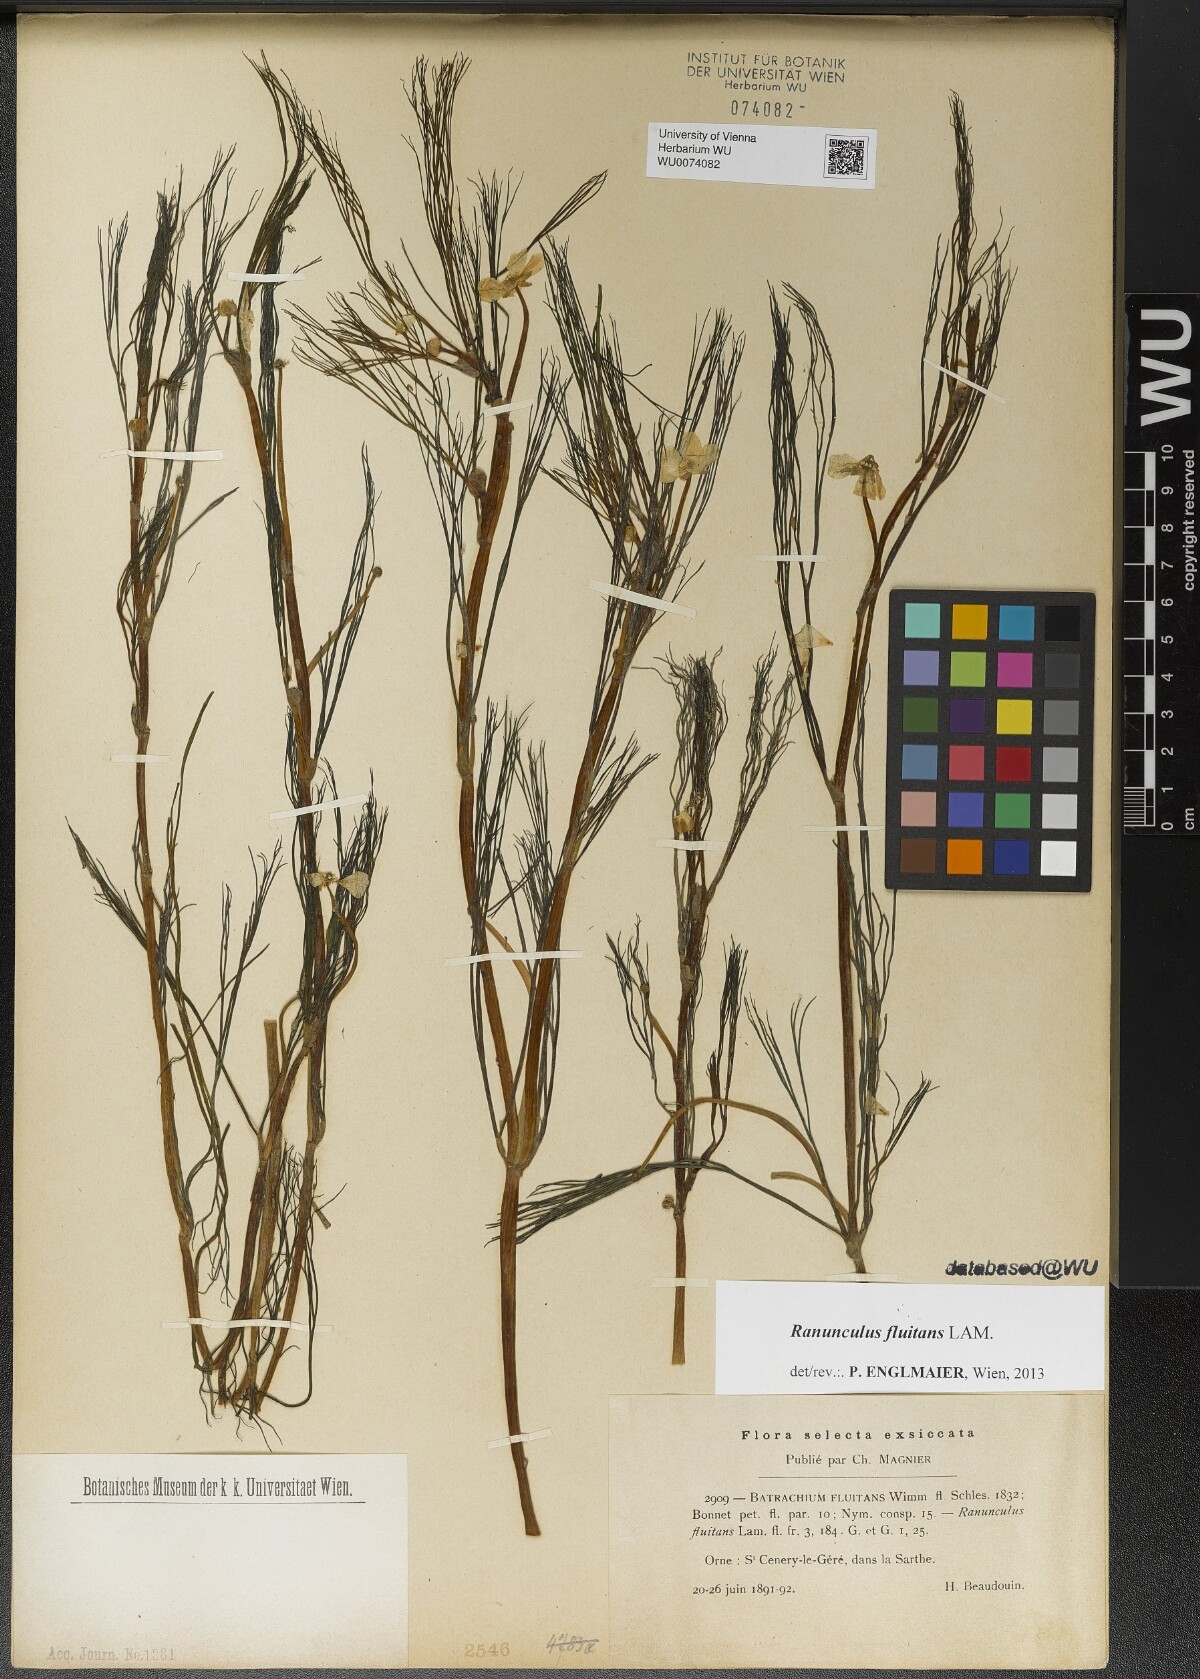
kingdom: Plantae
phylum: Tracheophyta
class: Magnoliopsida
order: Ranunculales
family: Ranunculaceae
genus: Ranunculus
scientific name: Ranunculus fluitans
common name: River water-crowfoot
